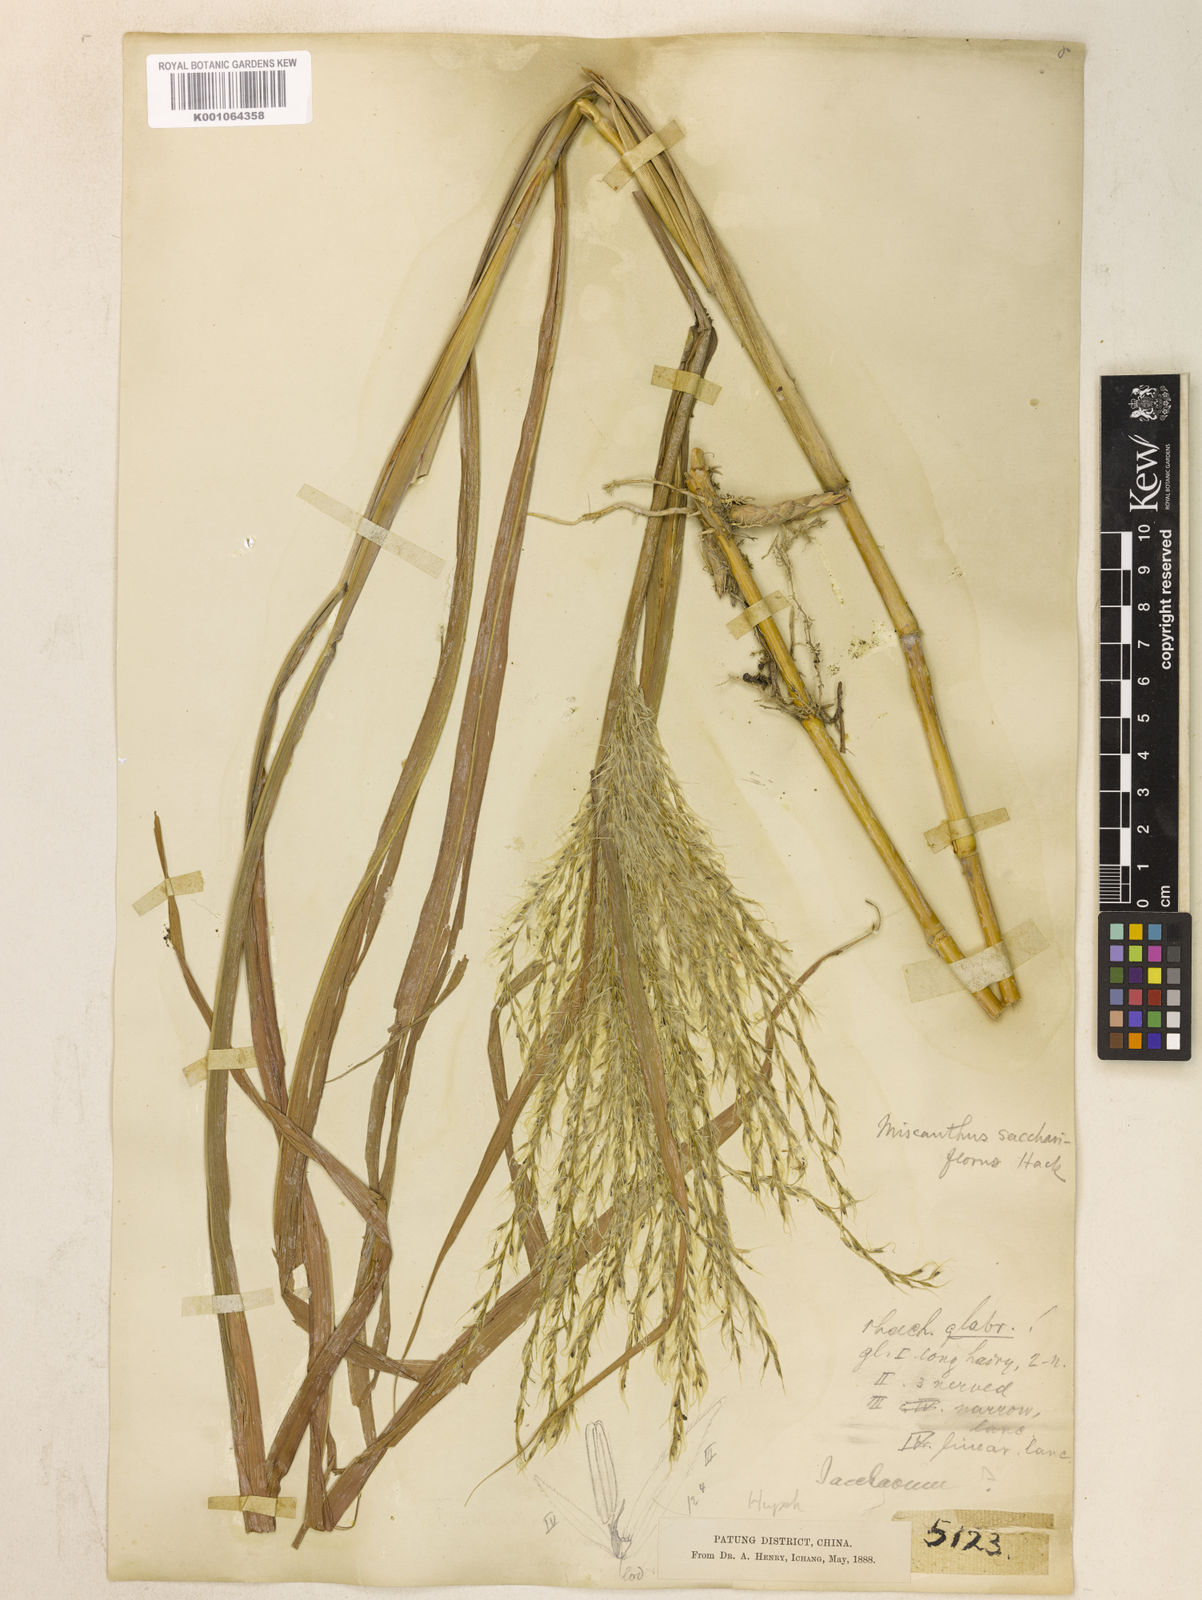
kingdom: Plantae
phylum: Tracheophyta
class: Liliopsida
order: Poales
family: Poaceae
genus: Miscanthus
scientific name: Miscanthus
